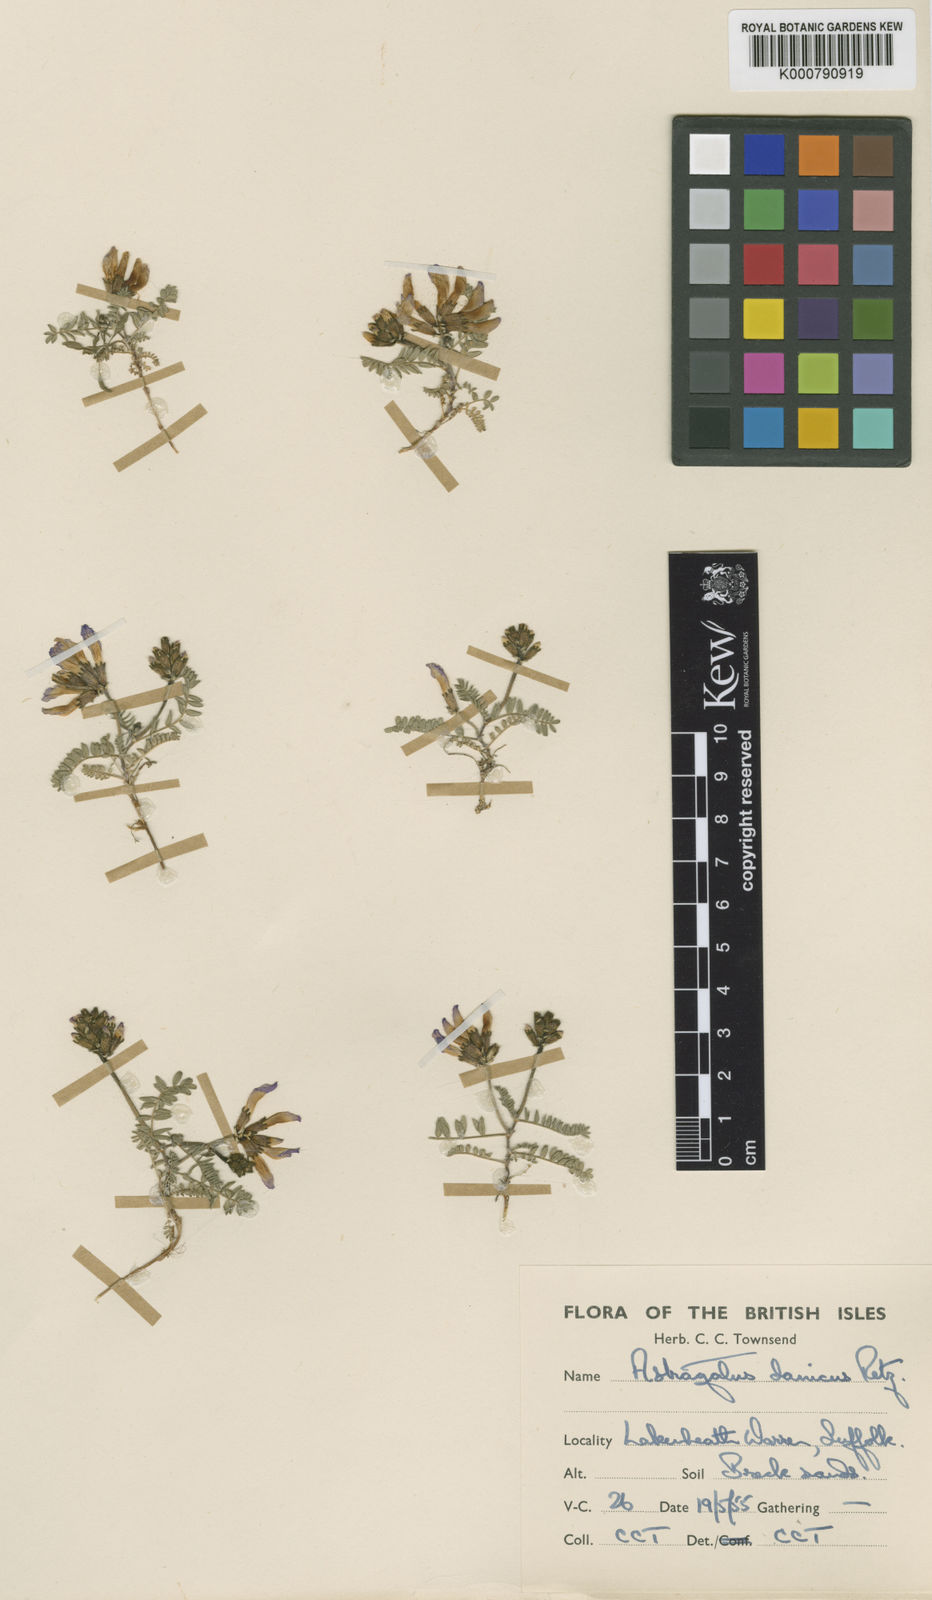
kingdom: Plantae
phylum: Tracheophyta
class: Magnoliopsida
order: Fabales
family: Fabaceae
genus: Astragalus
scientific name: Astragalus danicus
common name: Purple milk-vetch
